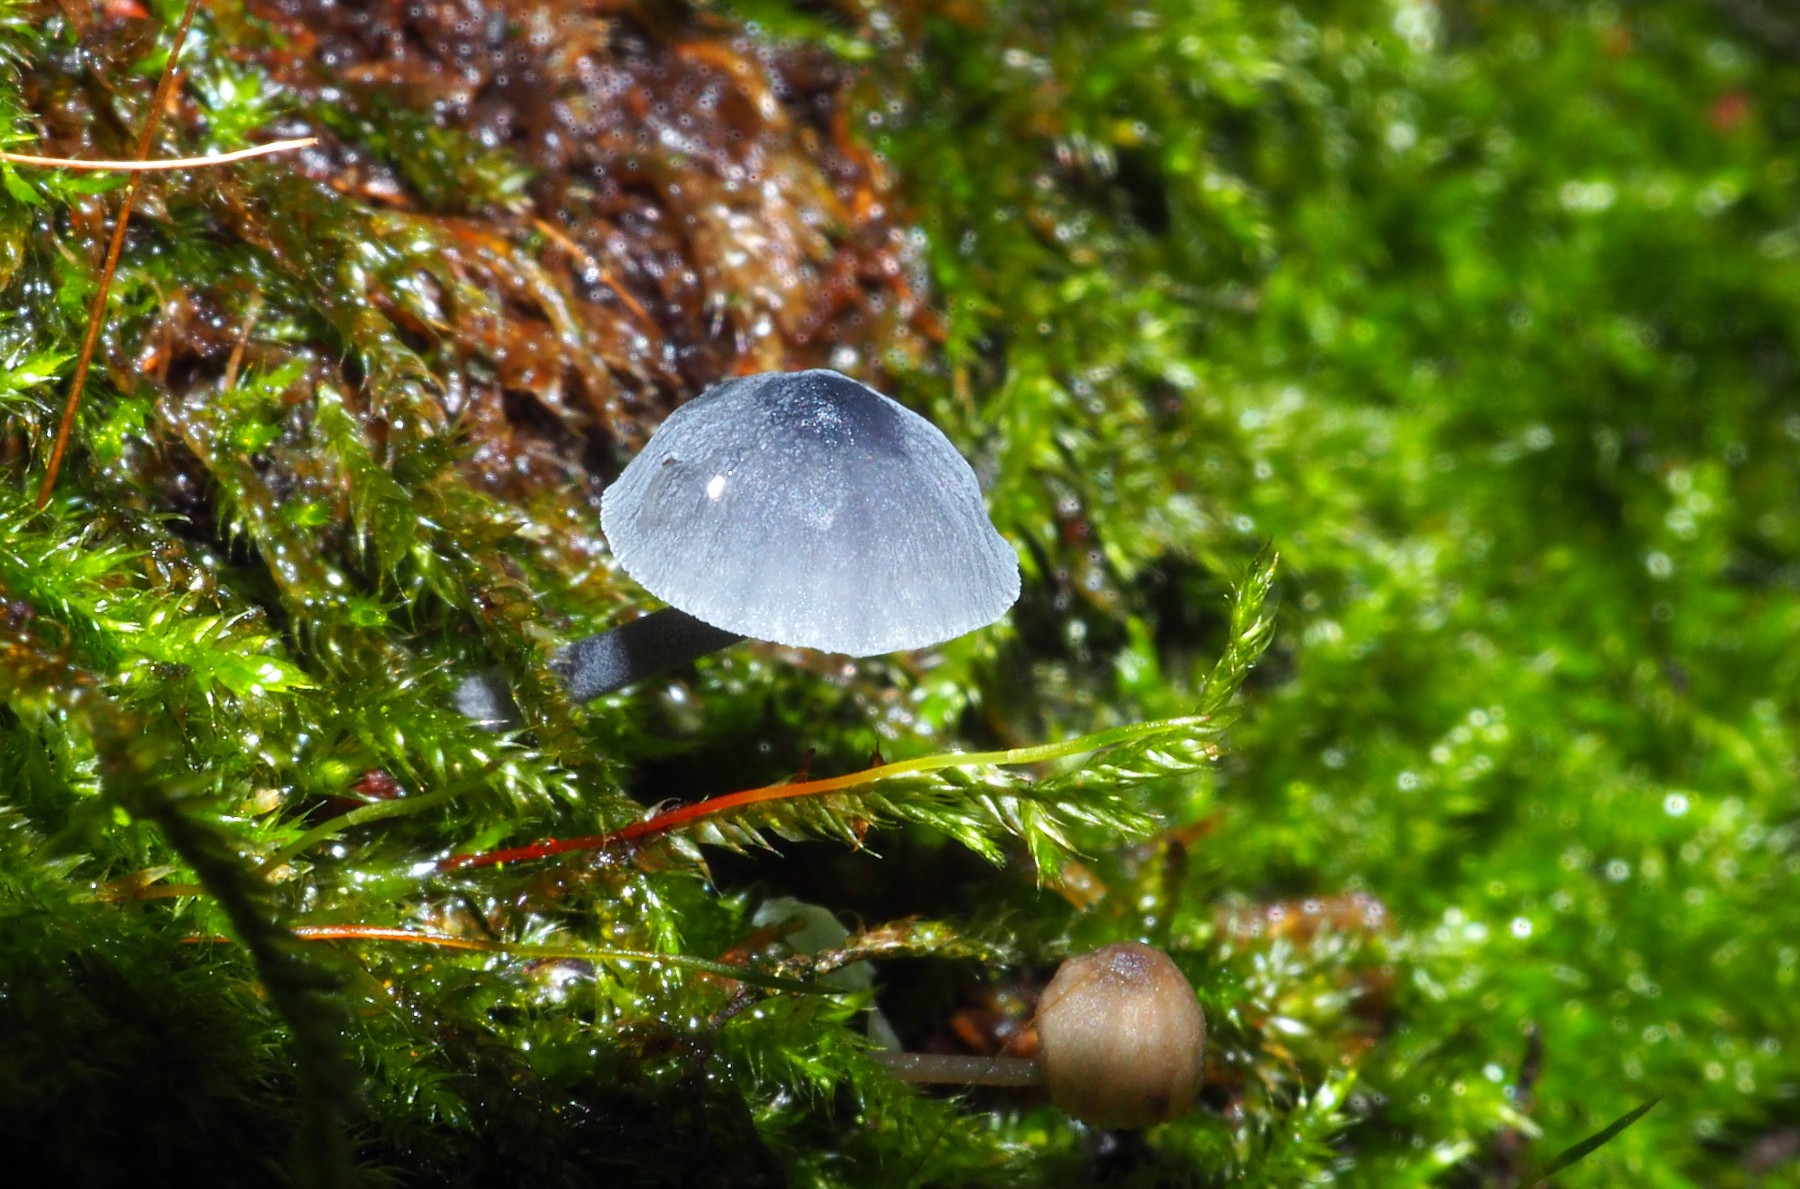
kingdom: Fungi
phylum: Basidiomycota
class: Agaricomycetes
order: Agaricales
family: Mycenaceae
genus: Mycena
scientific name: Mycena pseudocorticola
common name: gråblå bark-huesvamp
